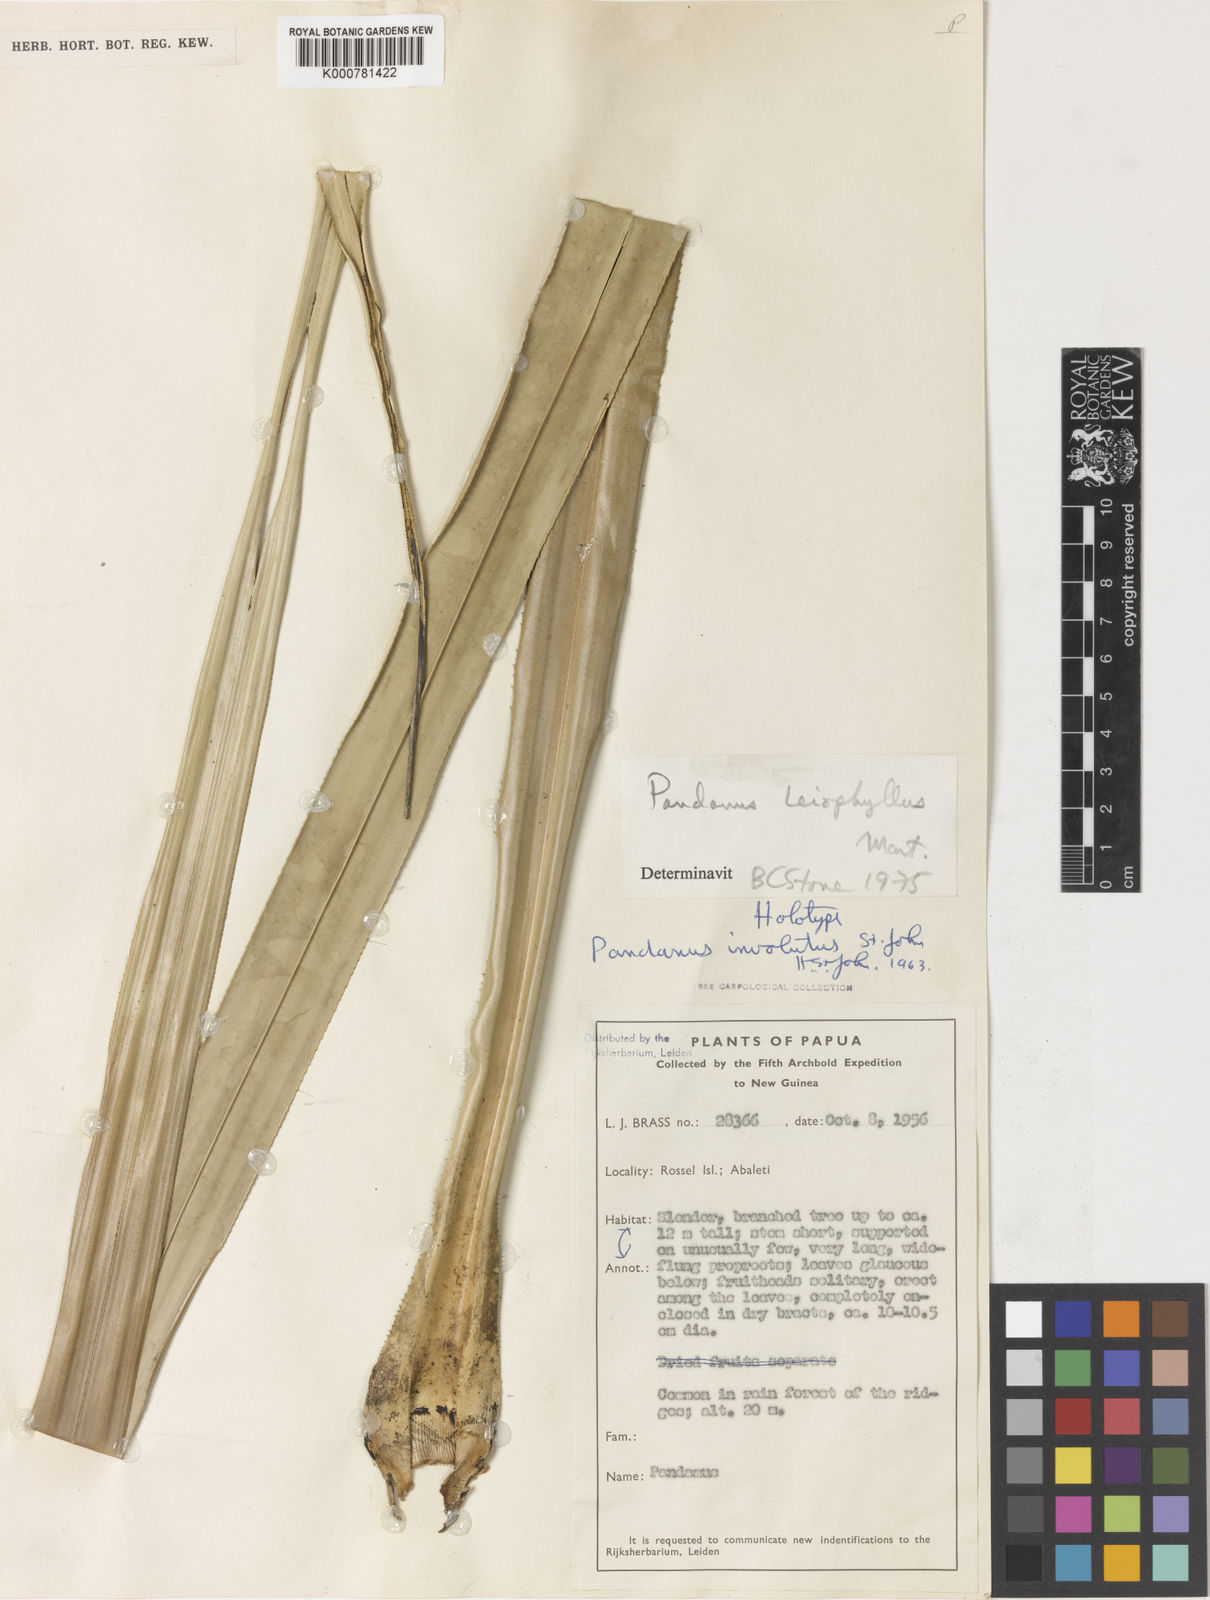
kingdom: Plantae
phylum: Tracheophyta
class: Liliopsida
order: Pandanales
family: Pandanaceae
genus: Pandanus
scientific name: Pandanus involutus
